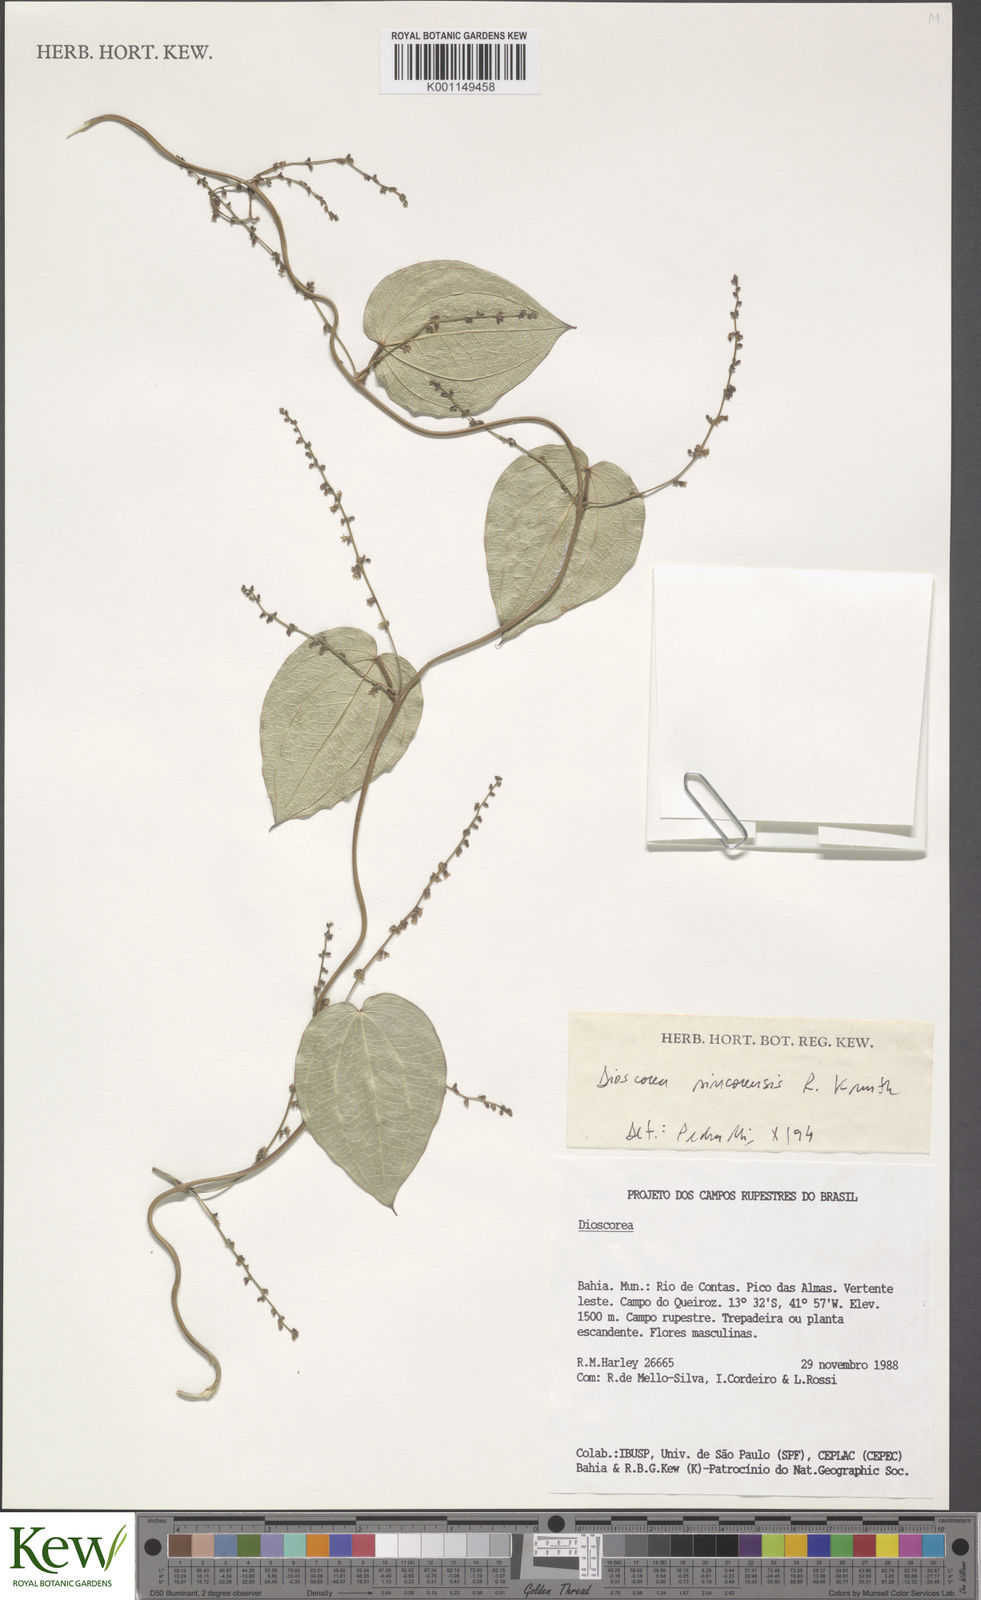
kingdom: Plantae
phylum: Tracheophyta
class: Liliopsida
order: Dioscoreales
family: Dioscoreaceae
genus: Dioscorea
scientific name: Dioscorea sincorensis
